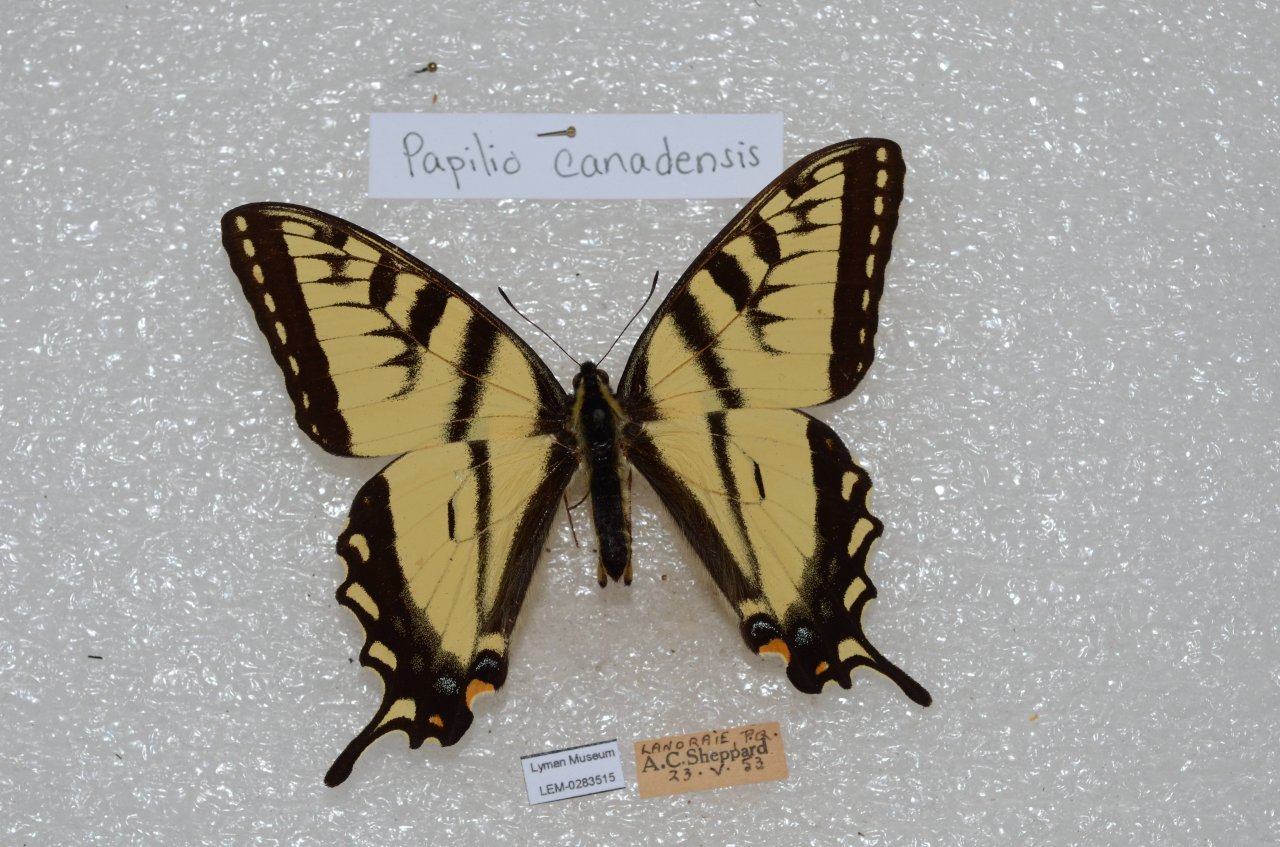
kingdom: Animalia
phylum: Arthropoda
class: Insecta
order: Lepidoptera
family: Papilionidae
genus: Pterourus
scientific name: Pterourus canadensis
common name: Canadian Tiger Swallowtail
